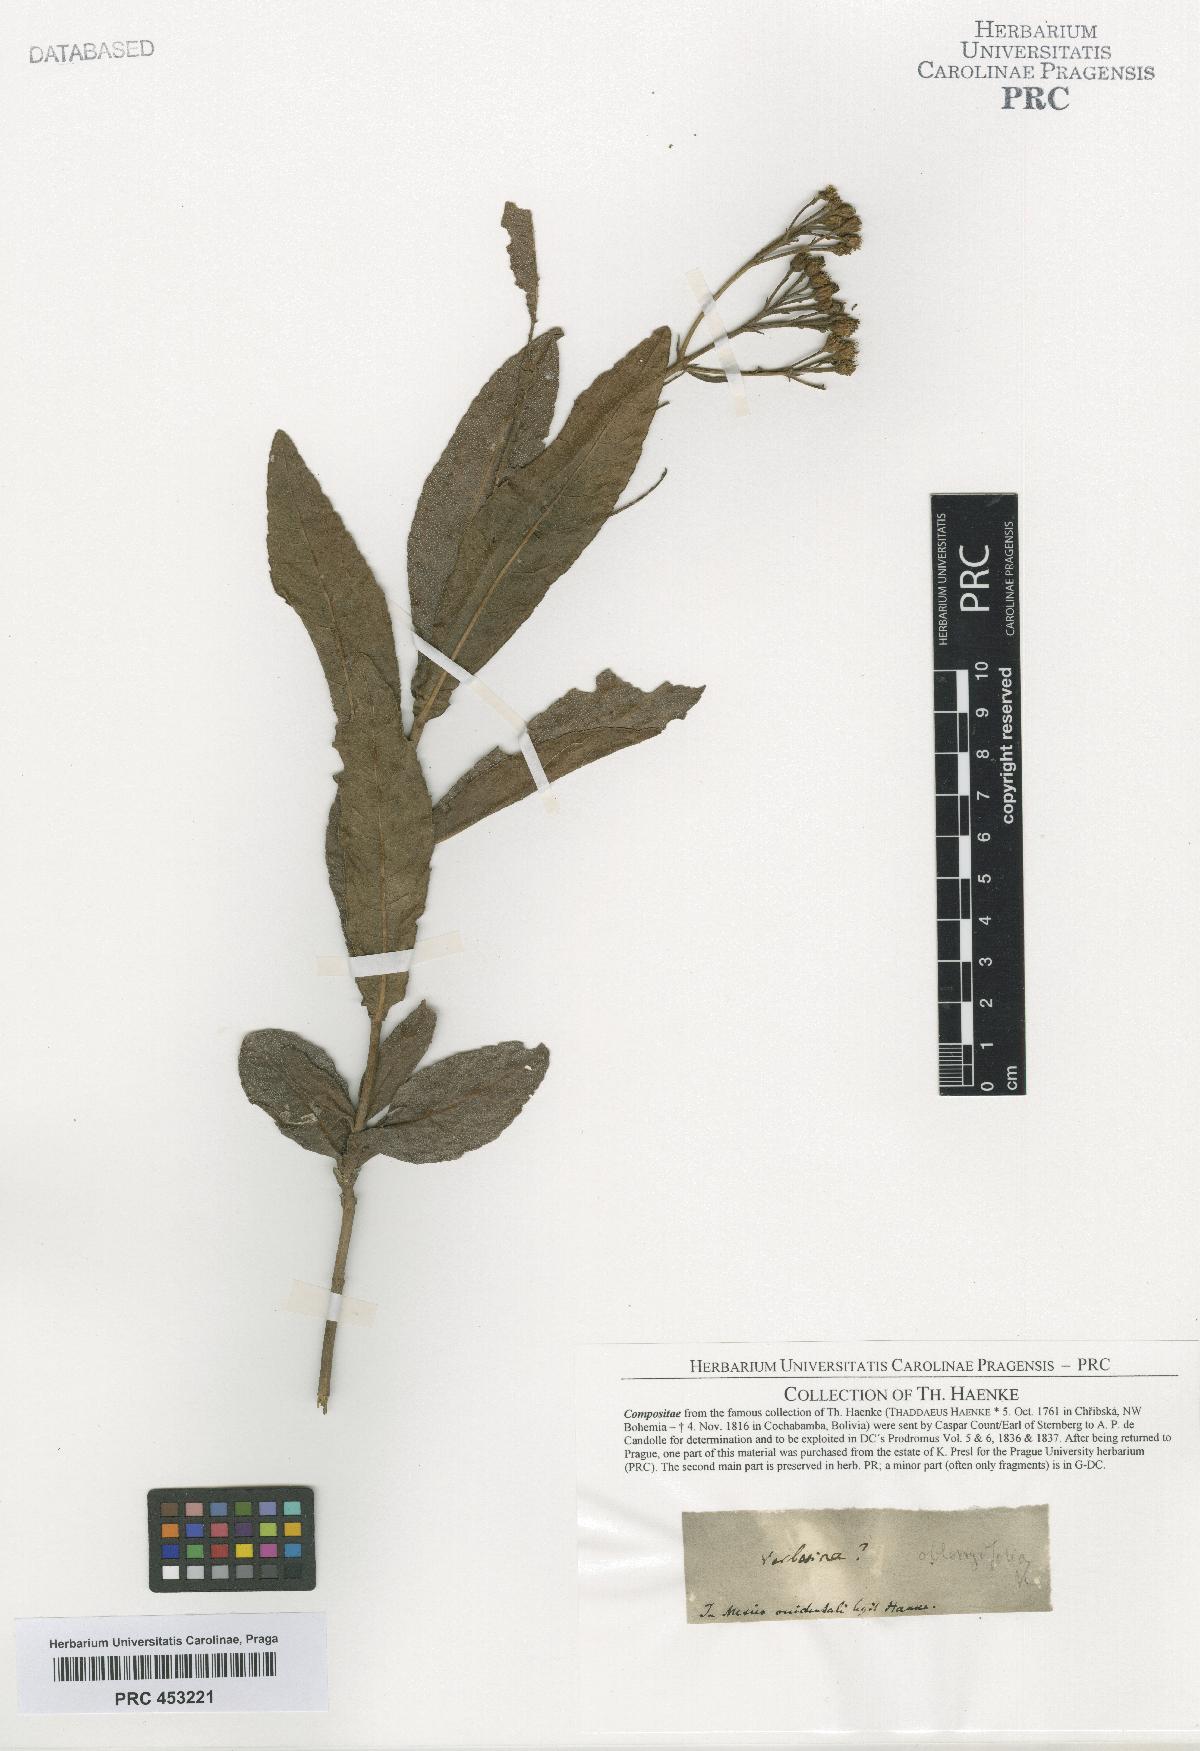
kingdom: Plantae
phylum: Tracheophyta
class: Magnoliopsida
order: Asterales
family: Asteraceae
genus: Verbesina
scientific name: Verbesina
